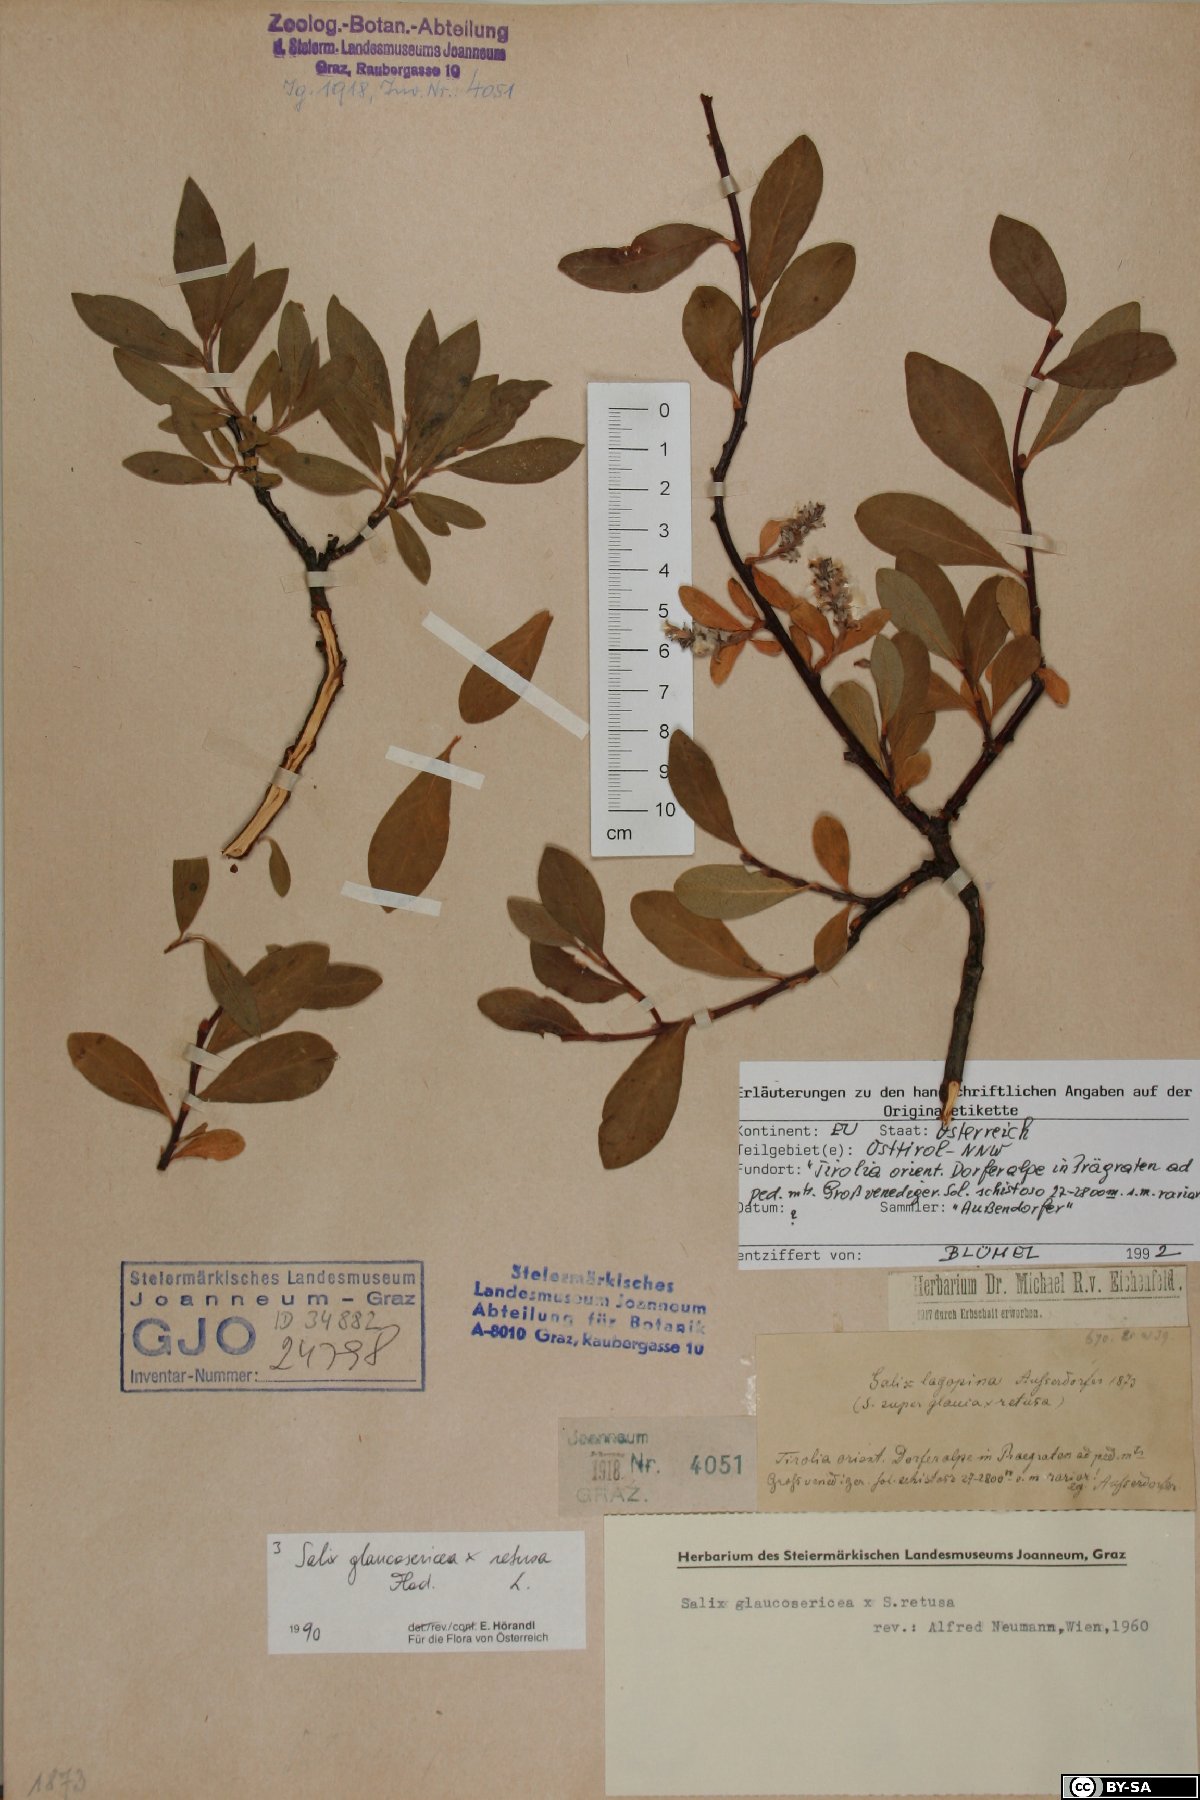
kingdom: Plantae
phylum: Tracheophyta
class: Magnoliopsida
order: Malpighiales
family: Salicaceae
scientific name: Salicaceae
